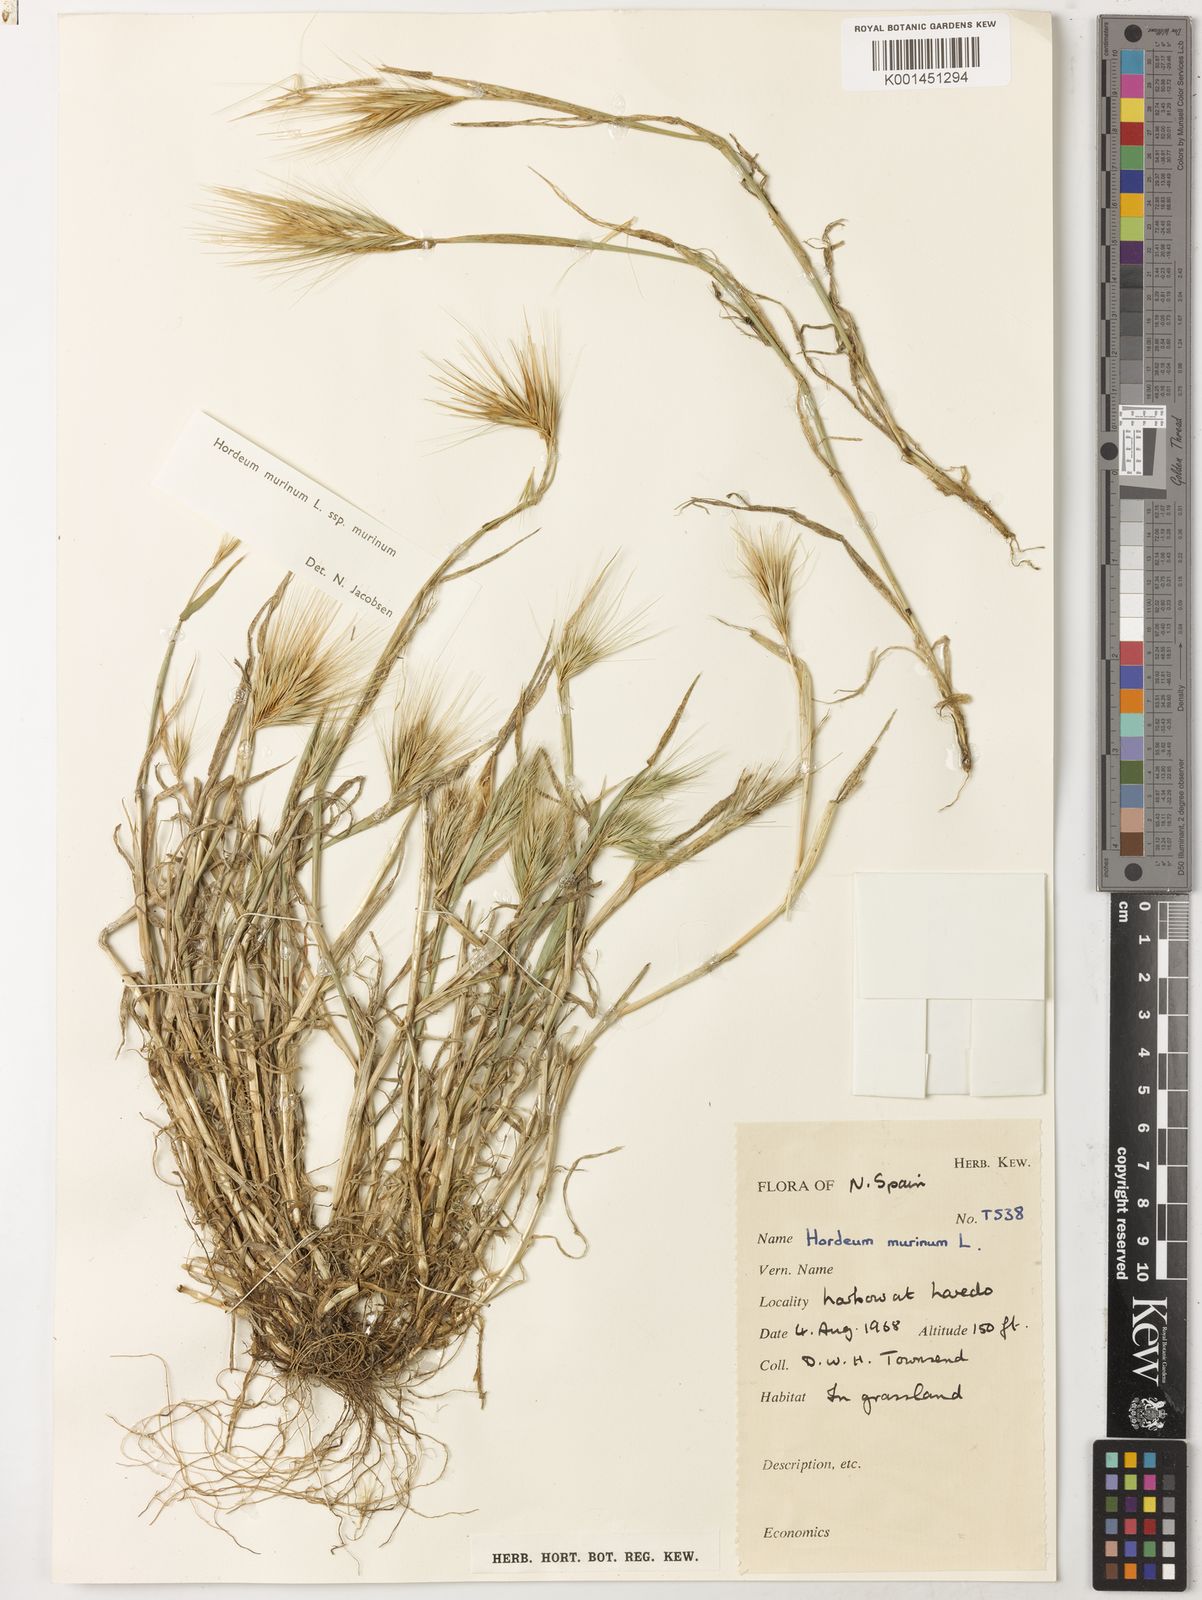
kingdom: Plantae
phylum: Tracheophyta
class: Liliopsida
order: Poales
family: Poaceae
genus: Hordeum
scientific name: Hordeum murinum
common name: Wall barley
